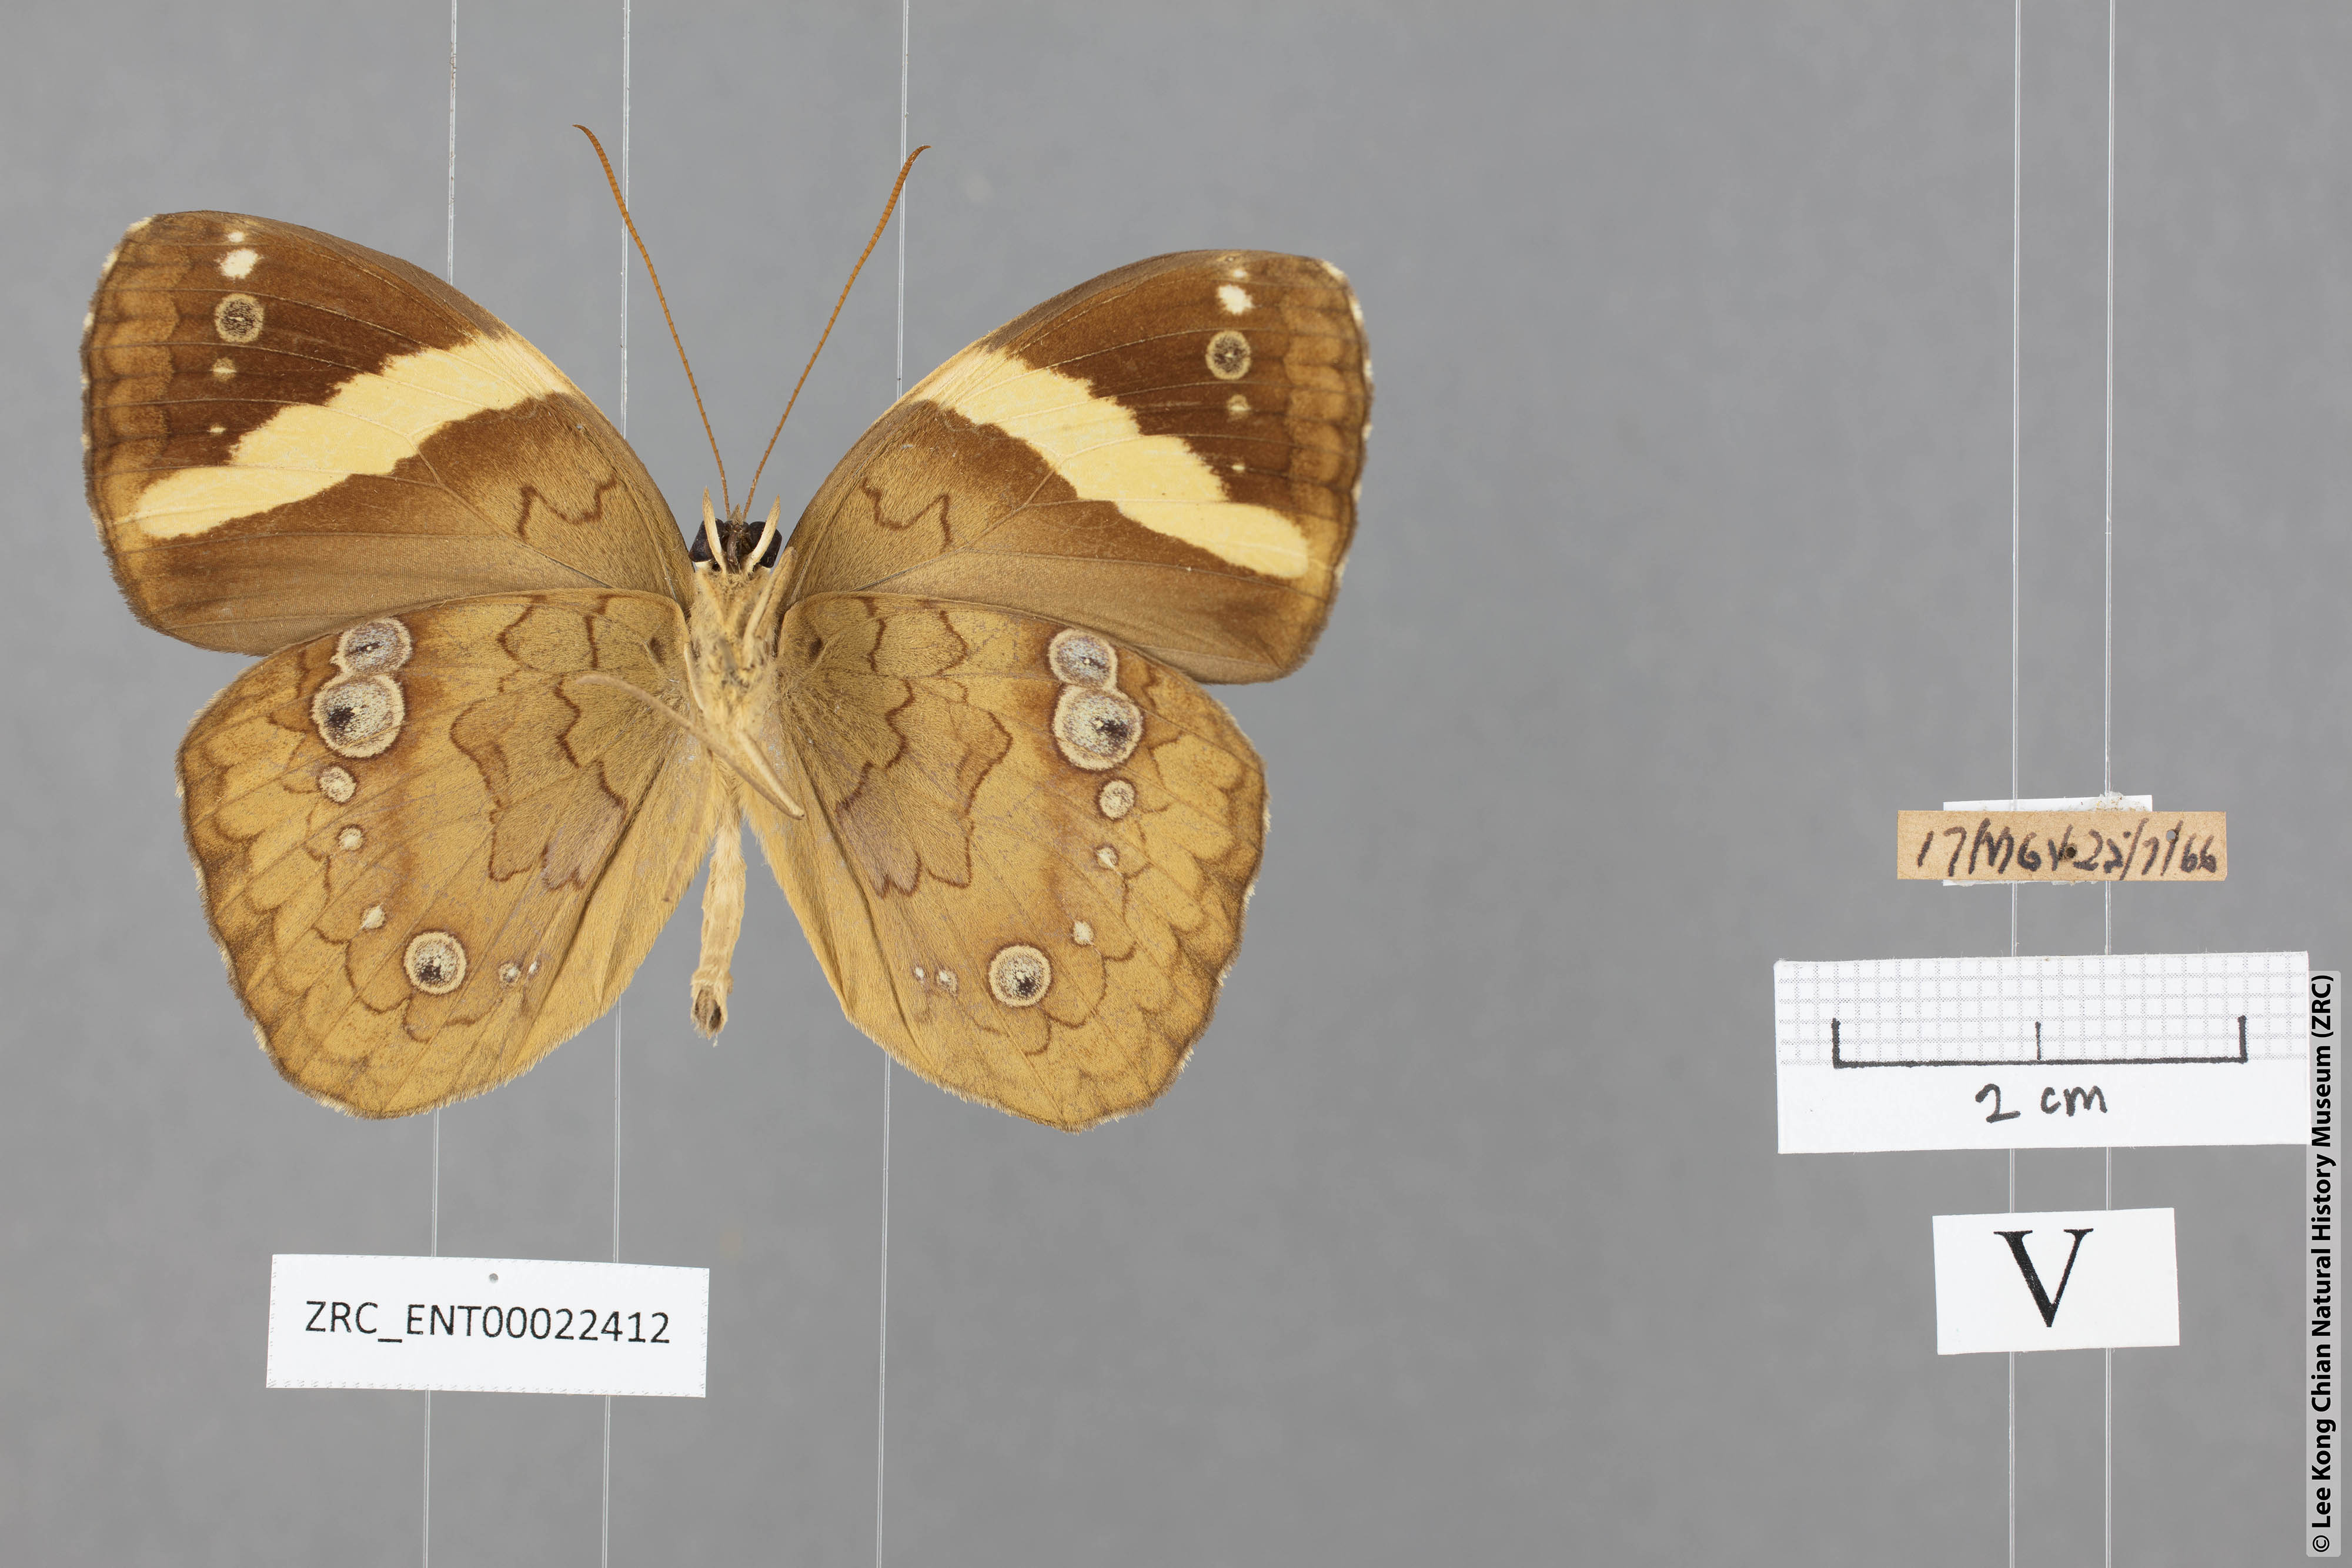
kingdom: Animalia
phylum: Arthropoda
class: Insecta
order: Lepidoptera
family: Nymphalidae
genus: Xanthotaenia
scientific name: Xanthotaenia busiris
